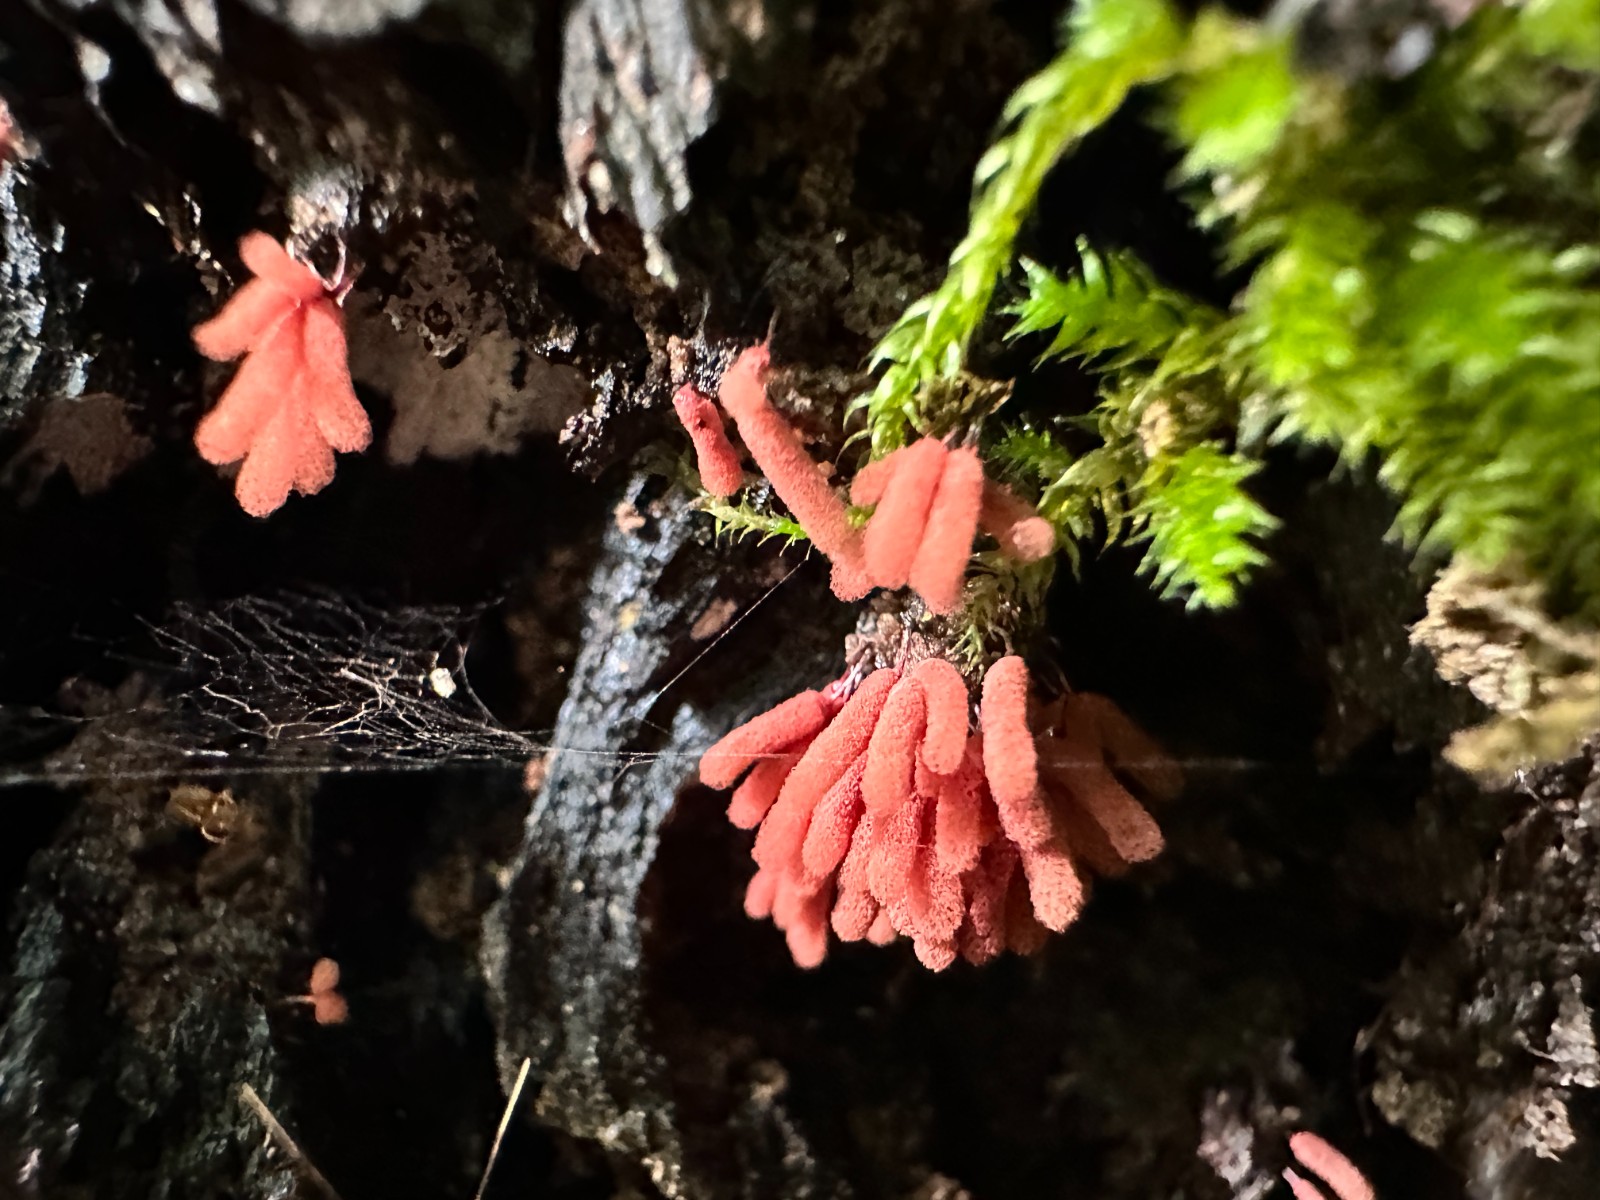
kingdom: Protozoa
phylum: Amoebozoa
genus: Arcyria
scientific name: Arcyria
